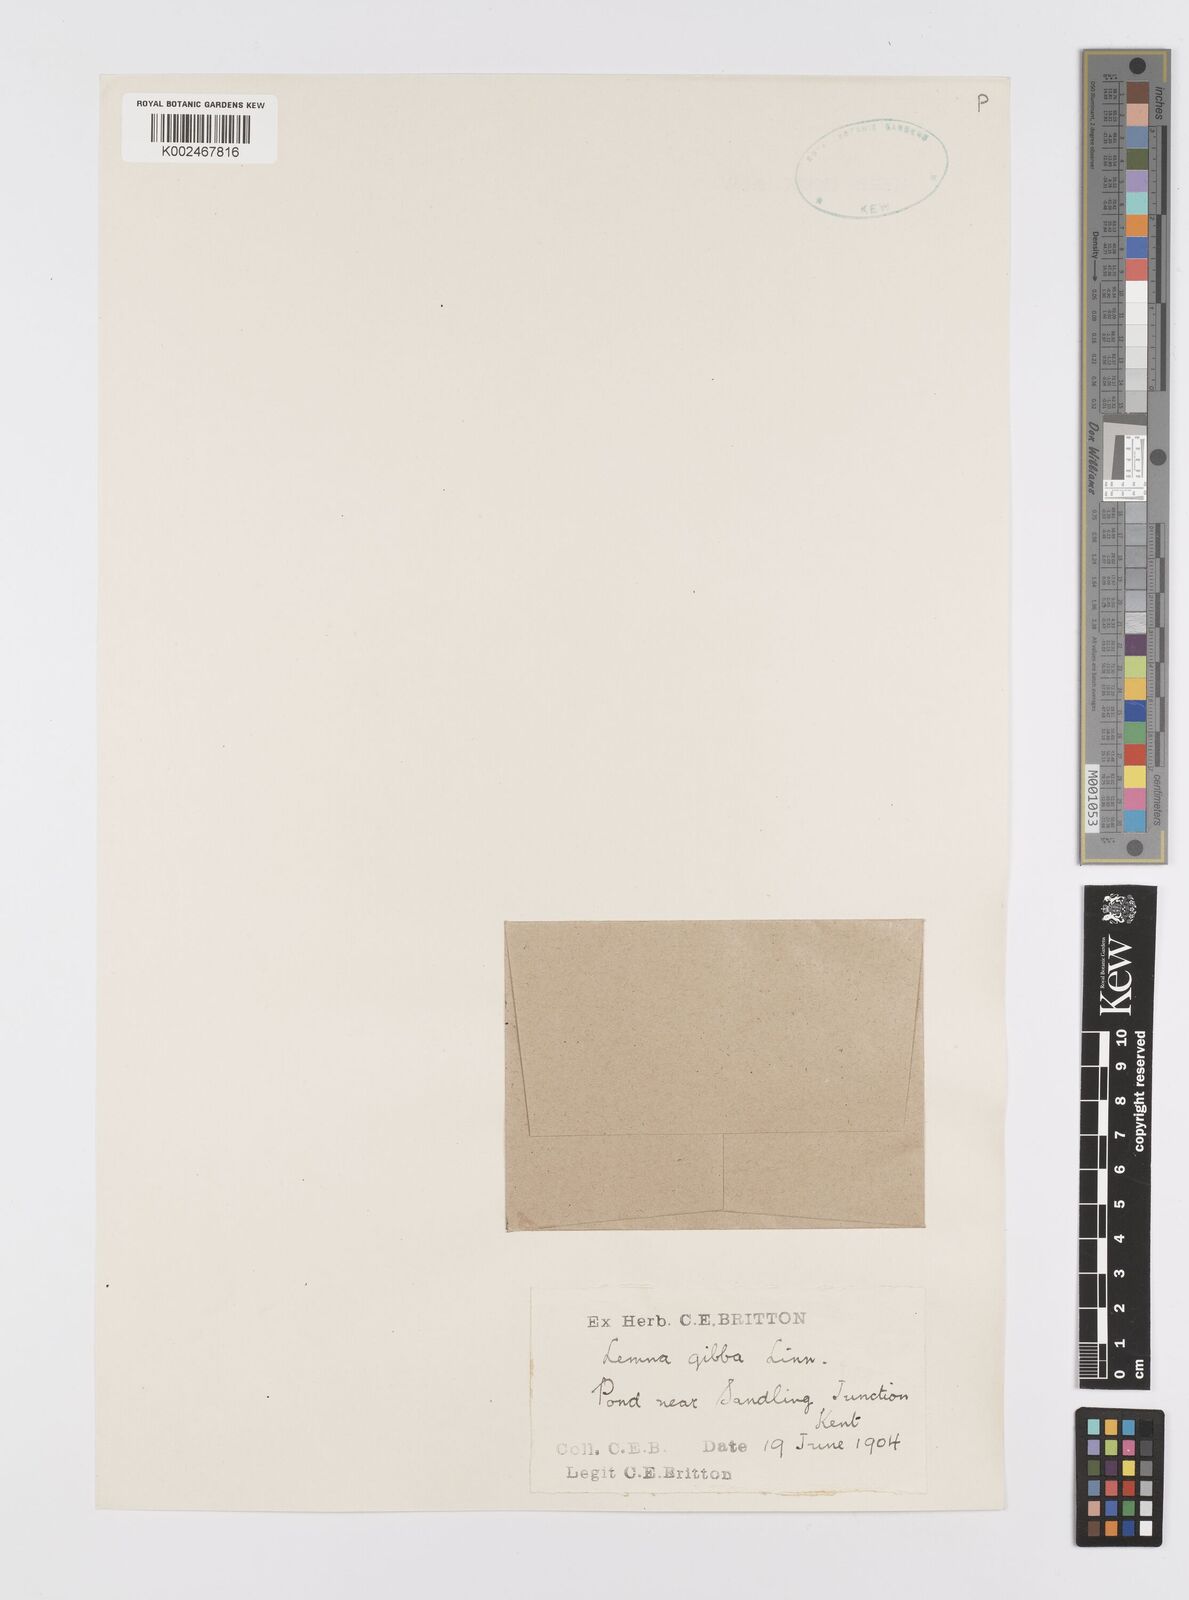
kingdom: Plantae
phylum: Tracheophyta
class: Liliopsida
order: Alismatales
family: Araceae
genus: Lemna
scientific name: Lemna gibba
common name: Fat duckweed
